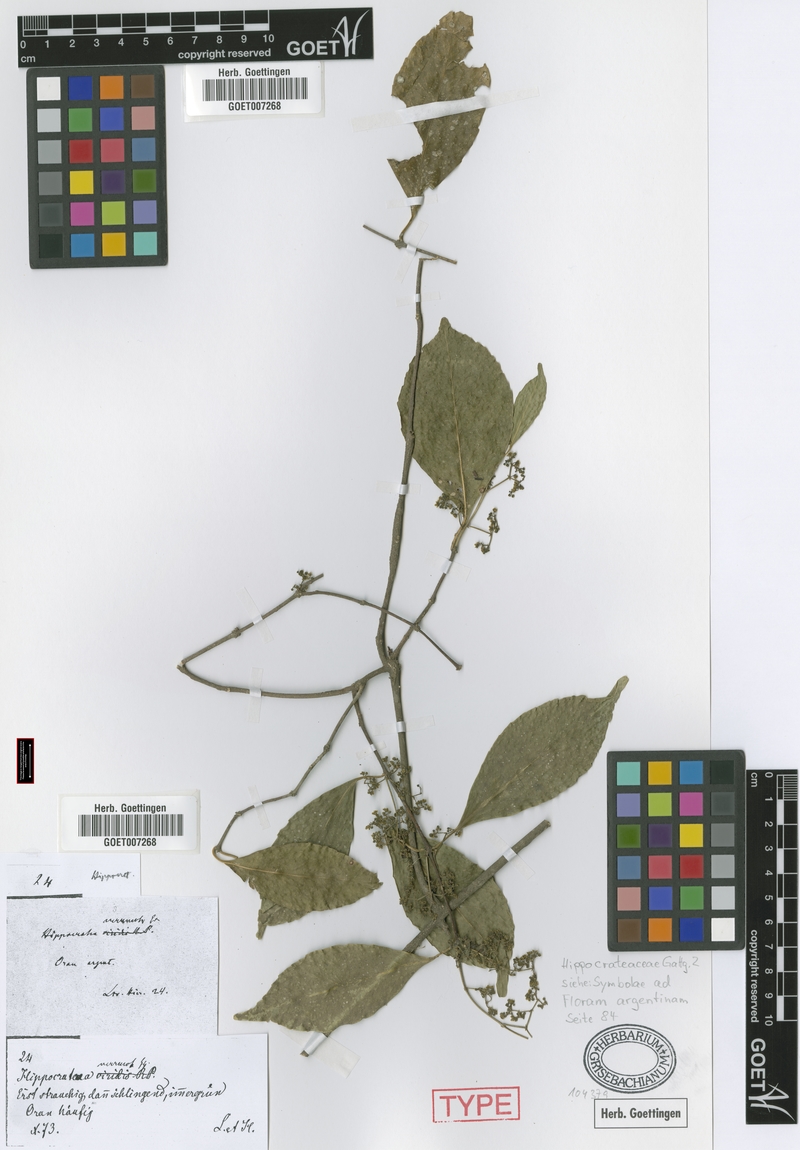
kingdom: Plantae
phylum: Tracheophyta
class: Magnoliopsida
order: Celastrales
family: Celastraceae
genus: Pristimera
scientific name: Pristimera celastroides
